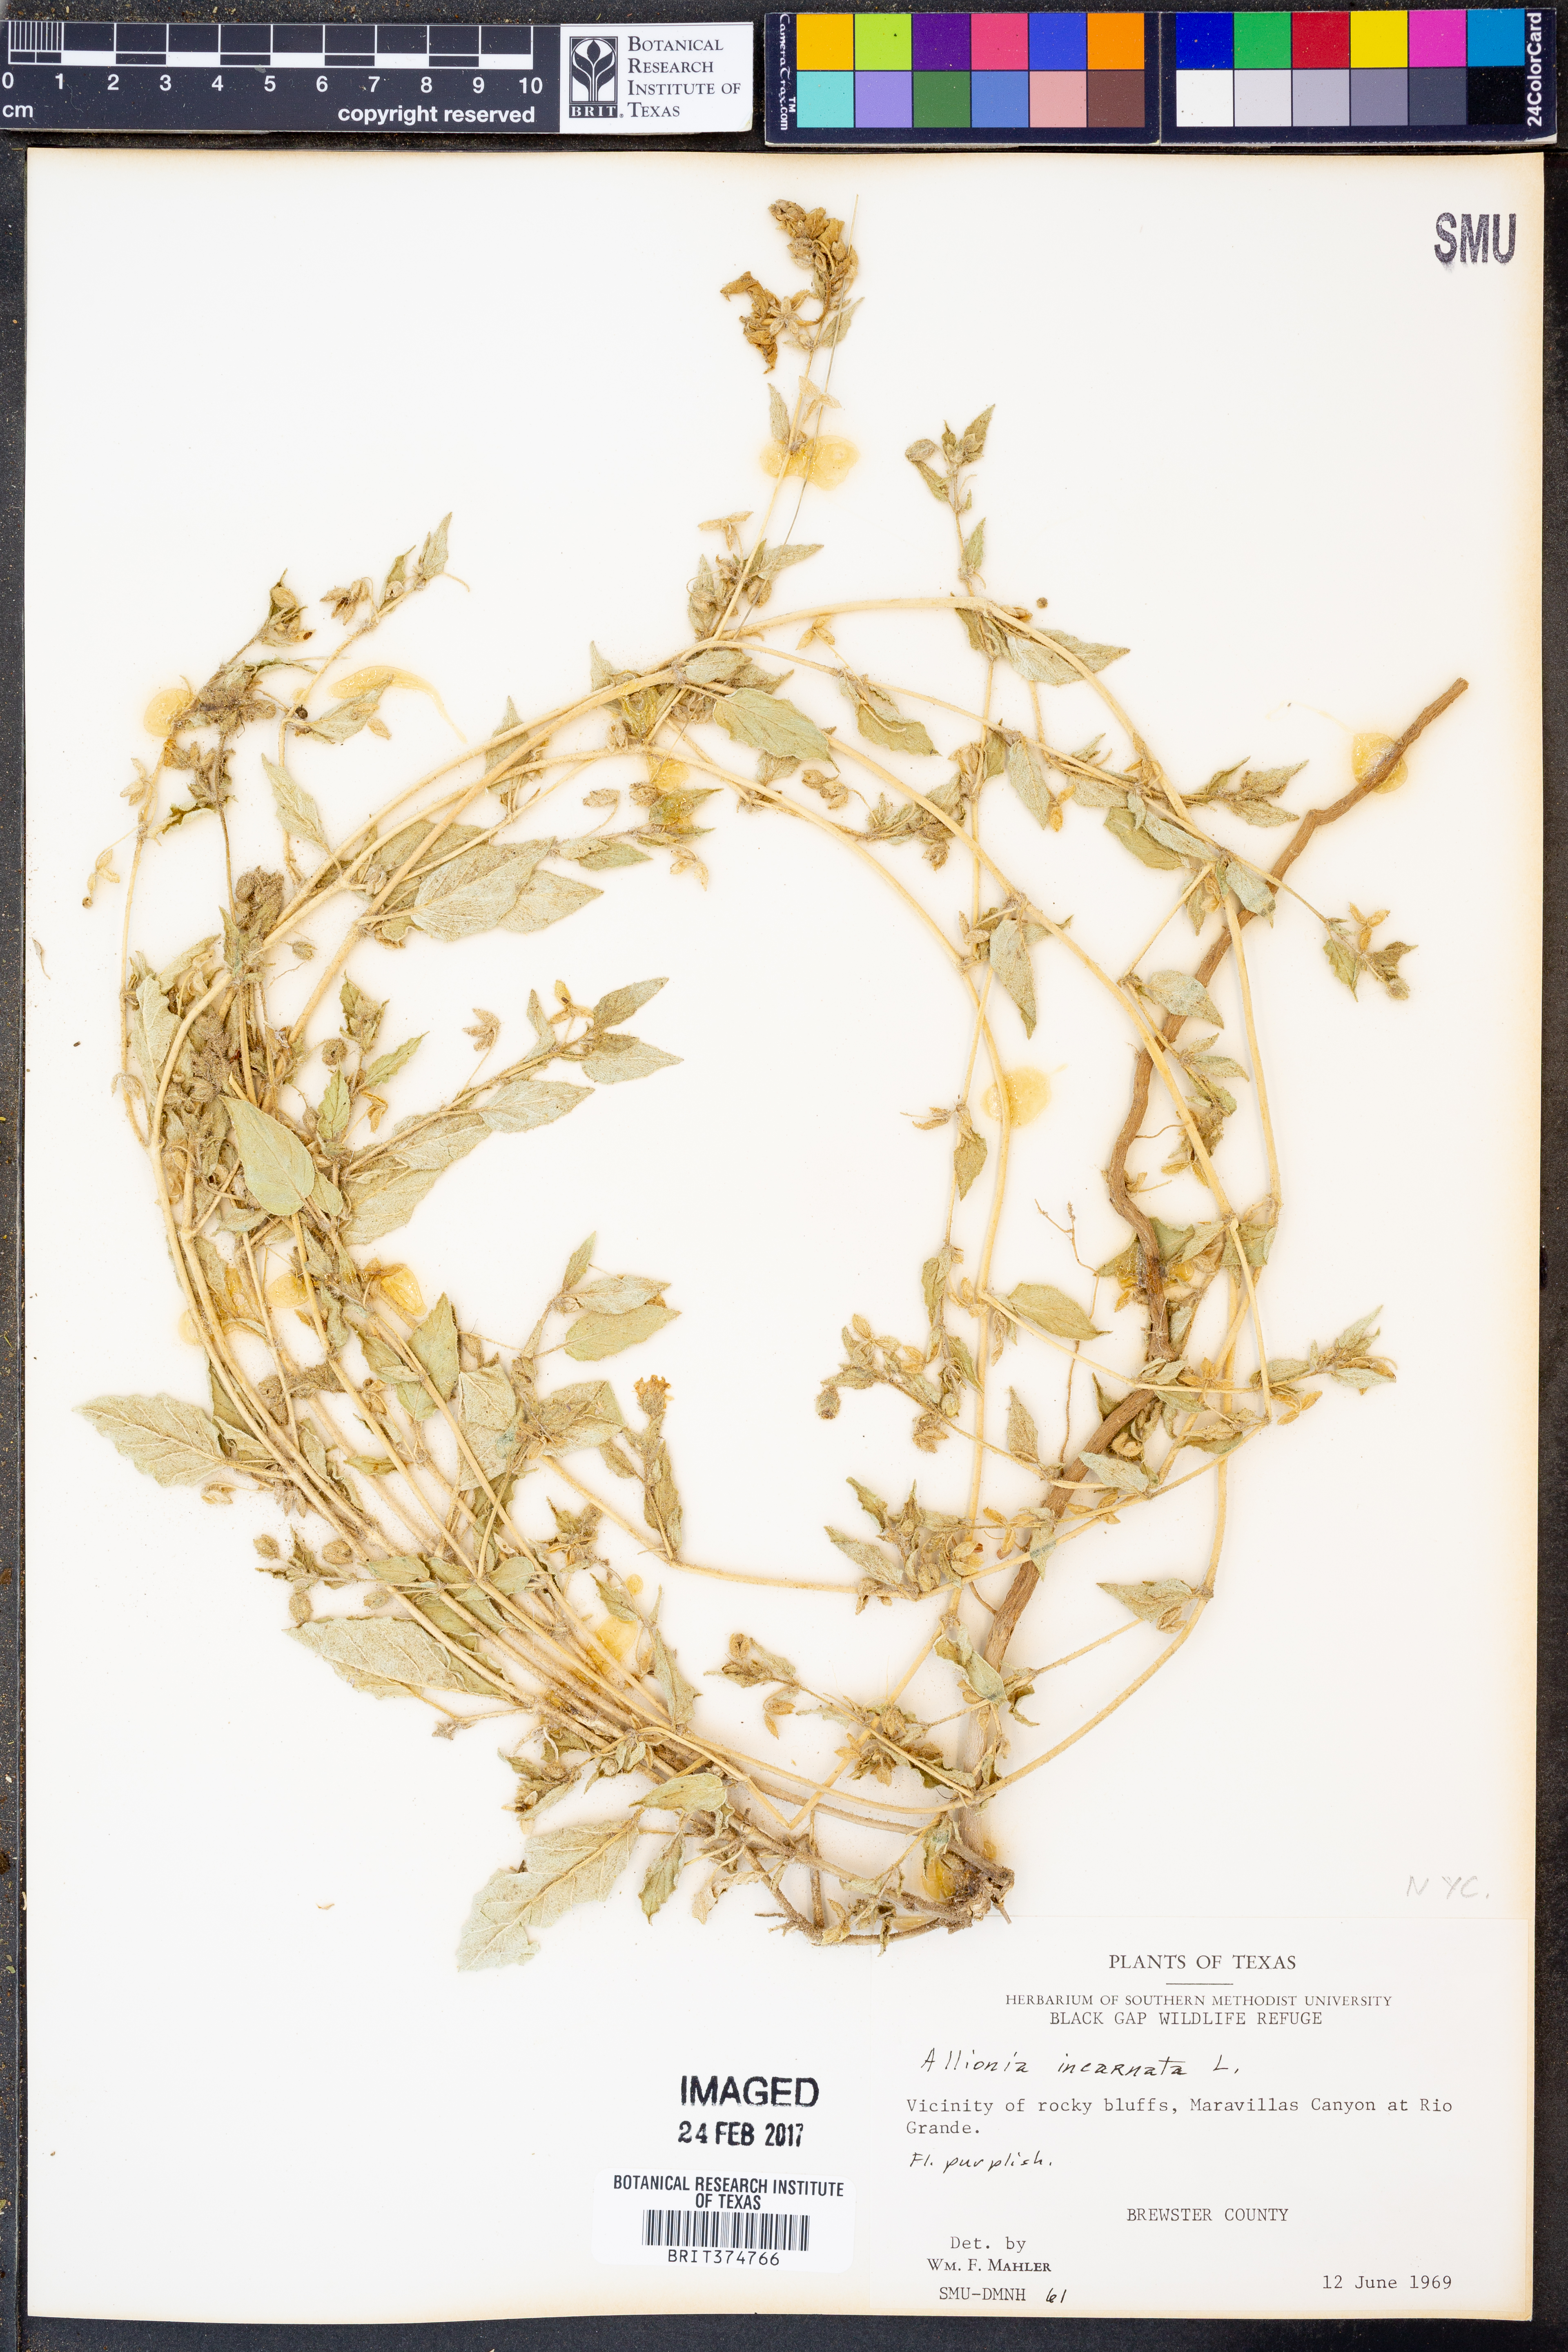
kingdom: Plantae
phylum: Tracheophyta
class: Magnoliopsida
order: Caryophyllales
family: Nyctaginaceae
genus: Allionia
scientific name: Allionia incarnata
